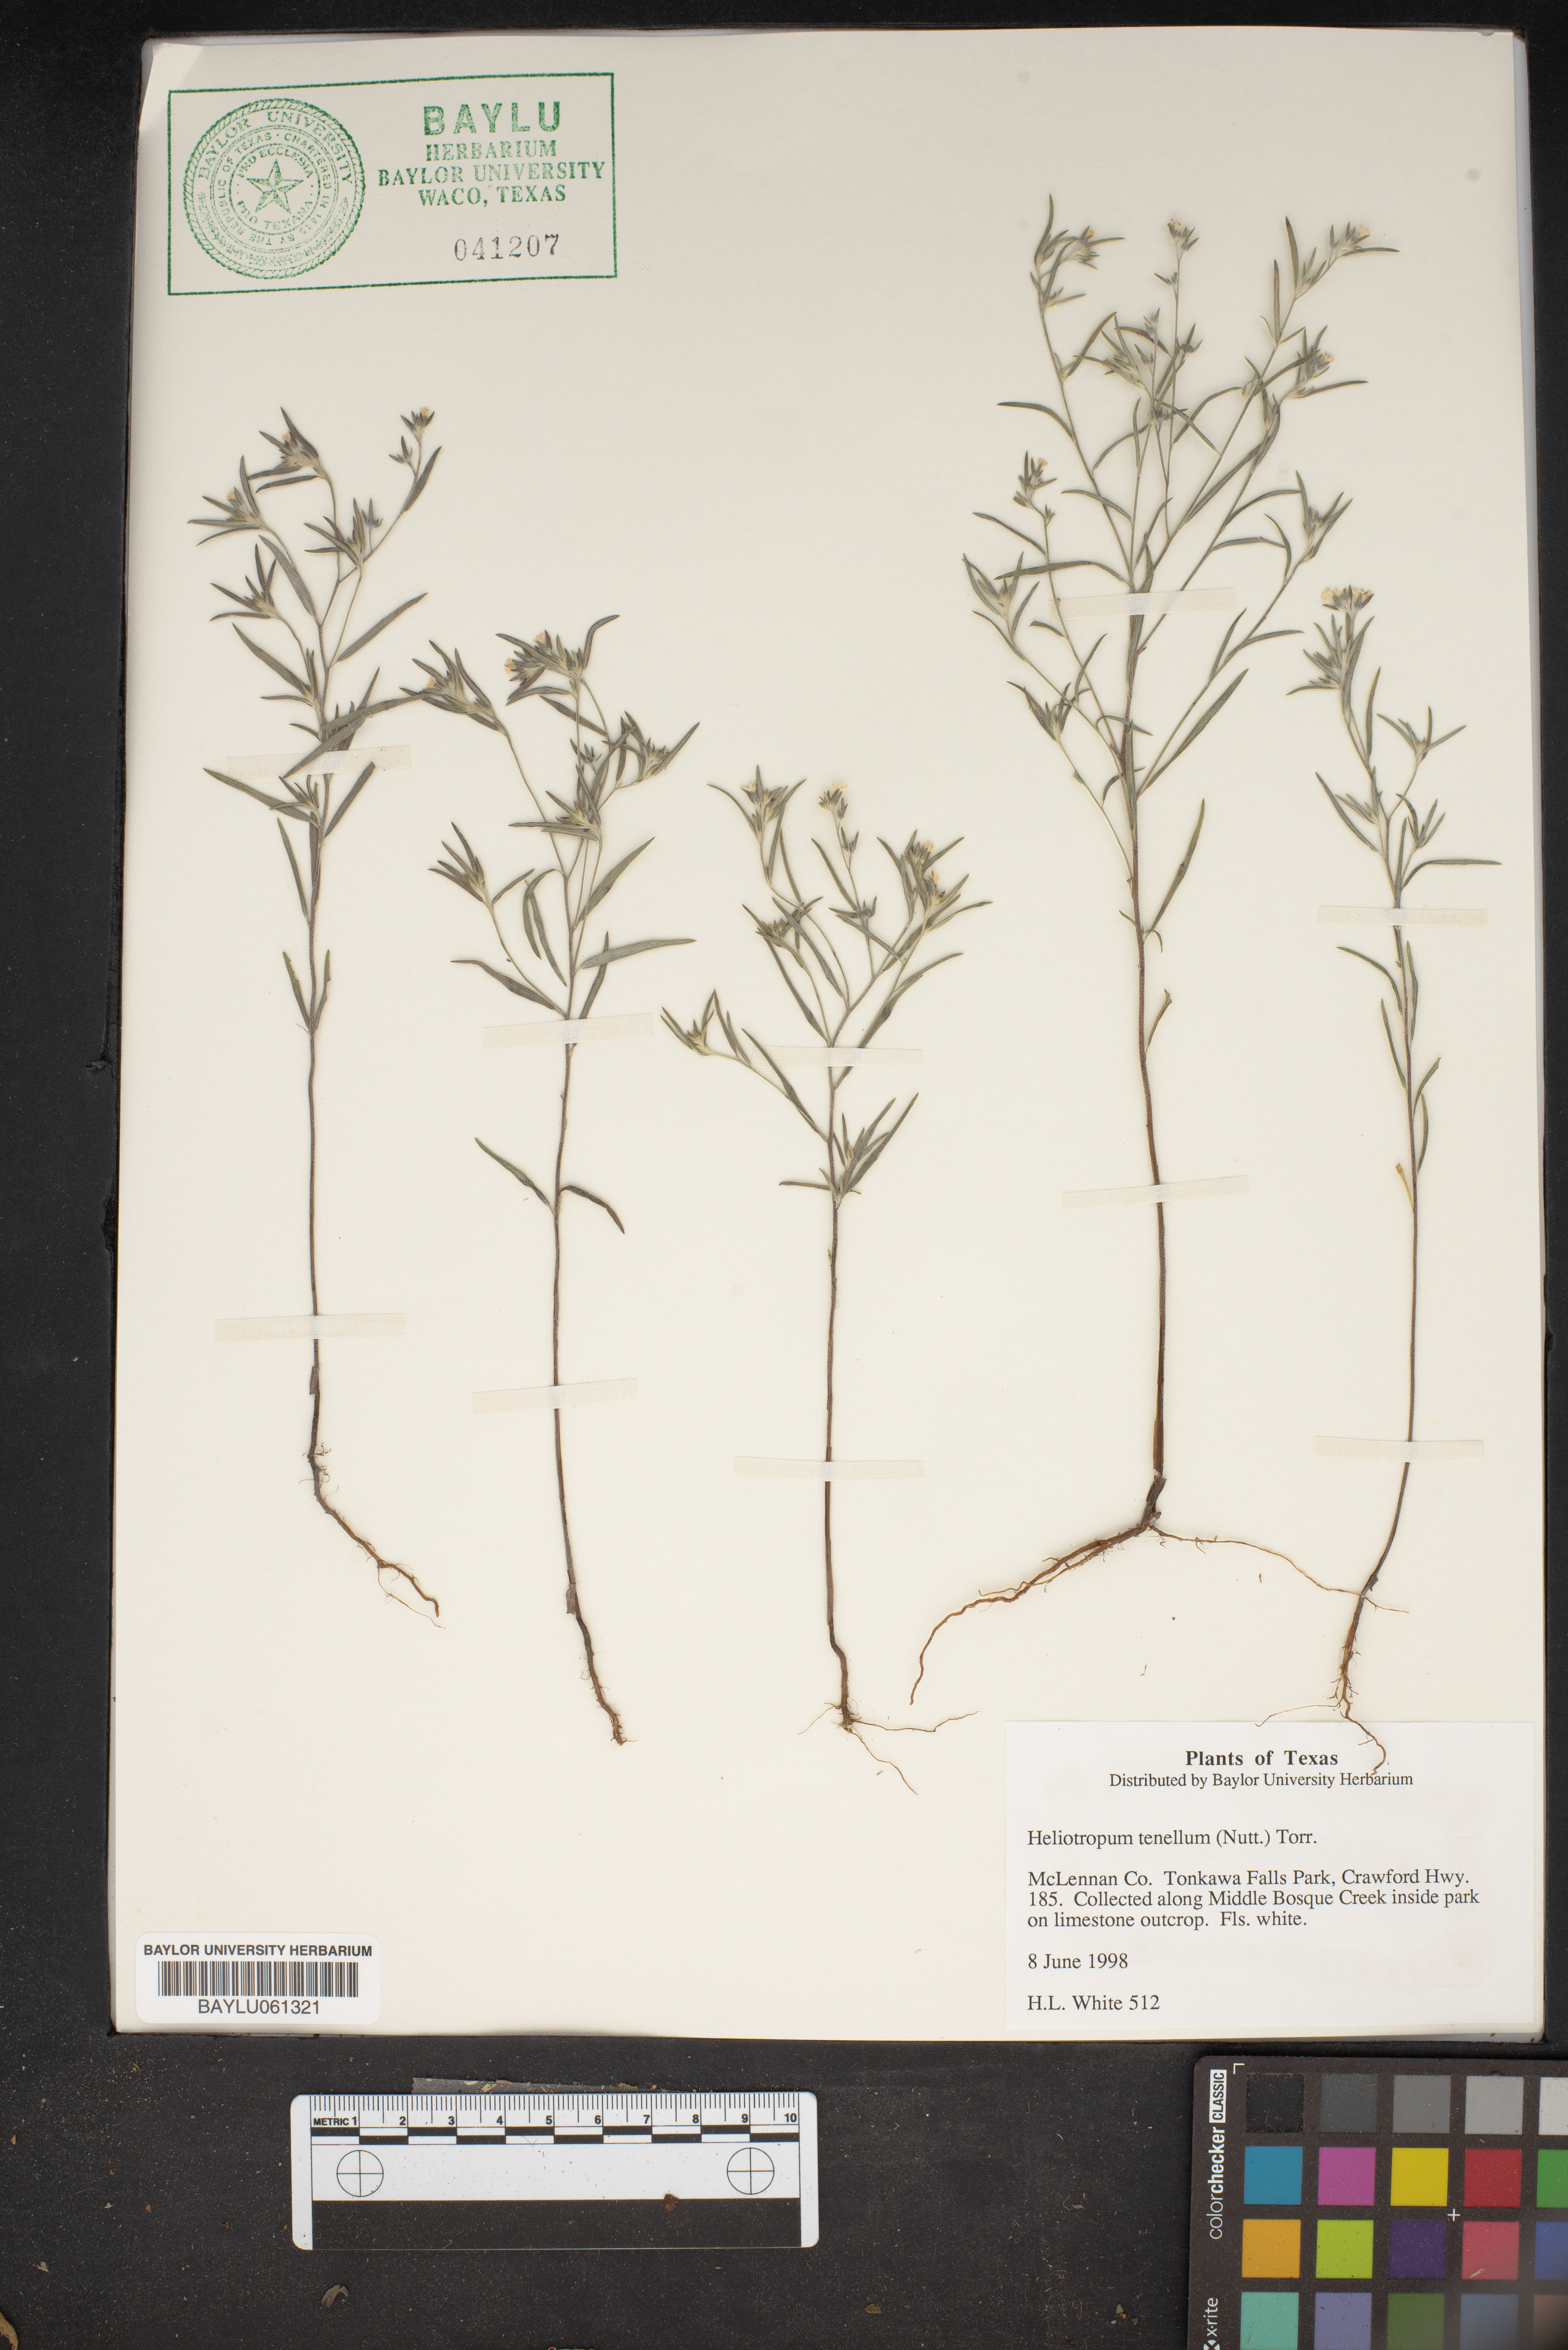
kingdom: Plantae
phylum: Tracheophyta
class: Magnoliopsida
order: Boraginales
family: Heliotropiaceae
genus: Euploca
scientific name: Euploca tenella
